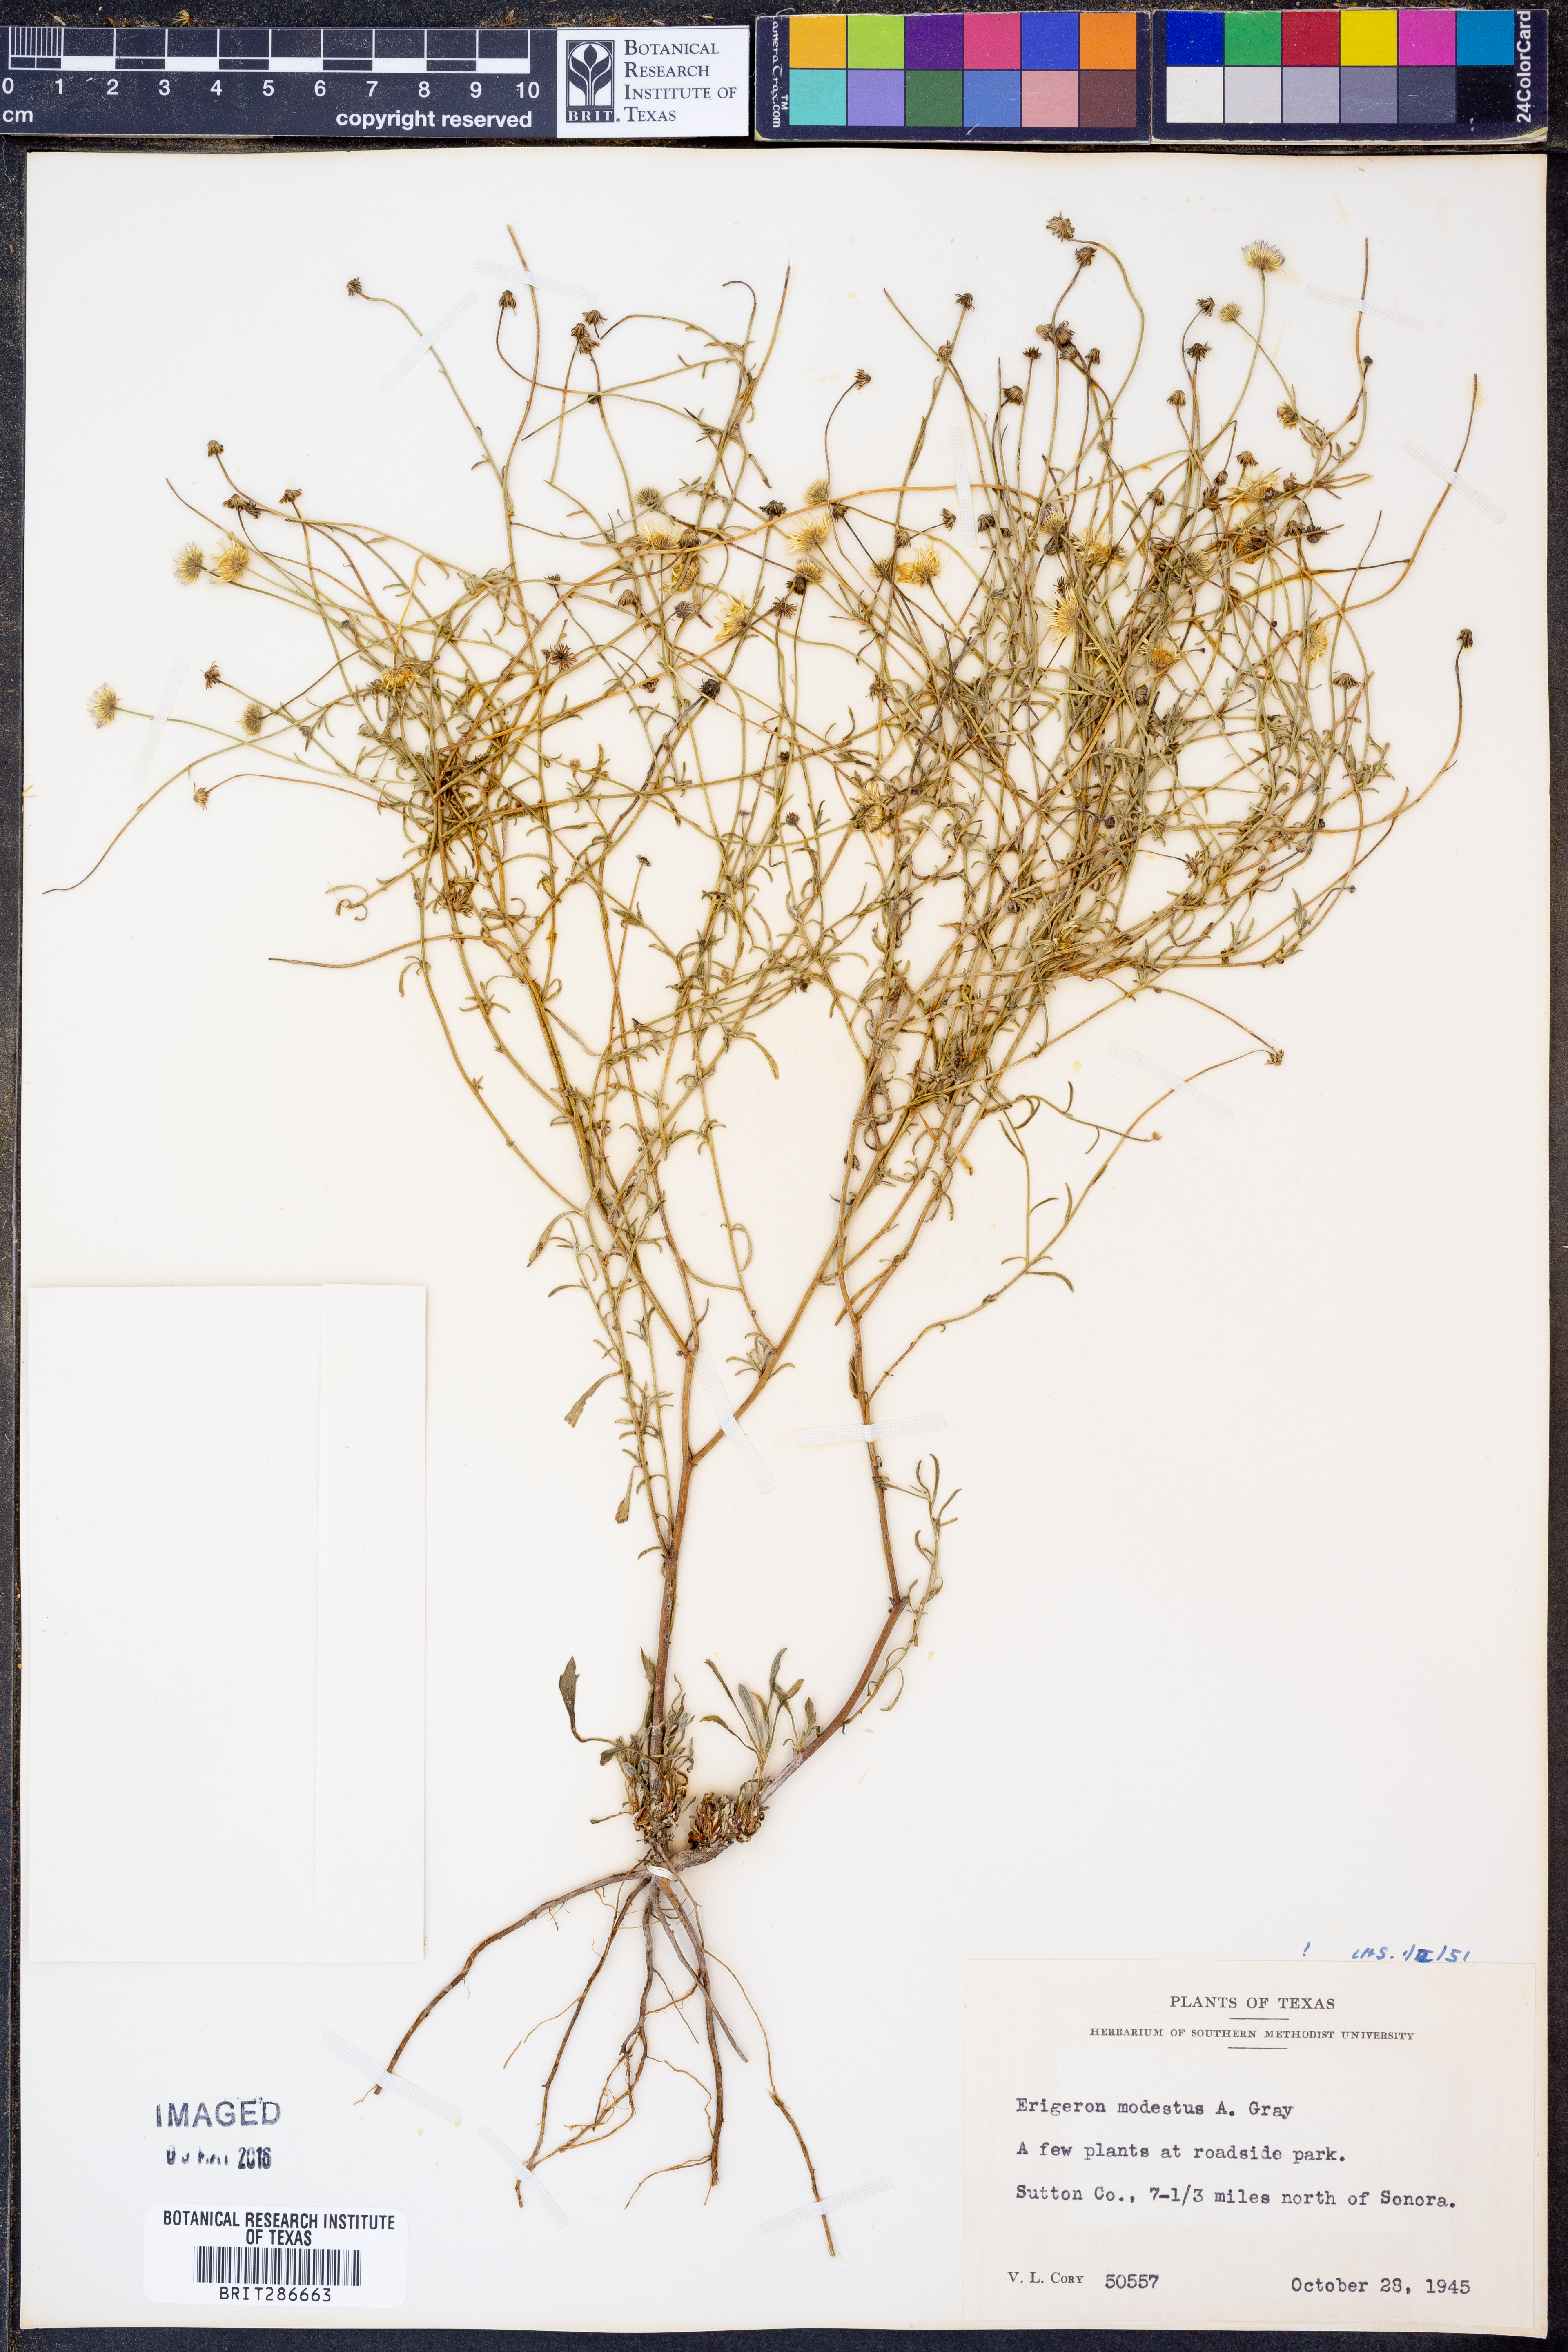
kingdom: Plantae
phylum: Tracheophyta
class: Magnoliopsida
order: Asterales
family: Asteraceae
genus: Erigeron
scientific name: Erigeron modestus
